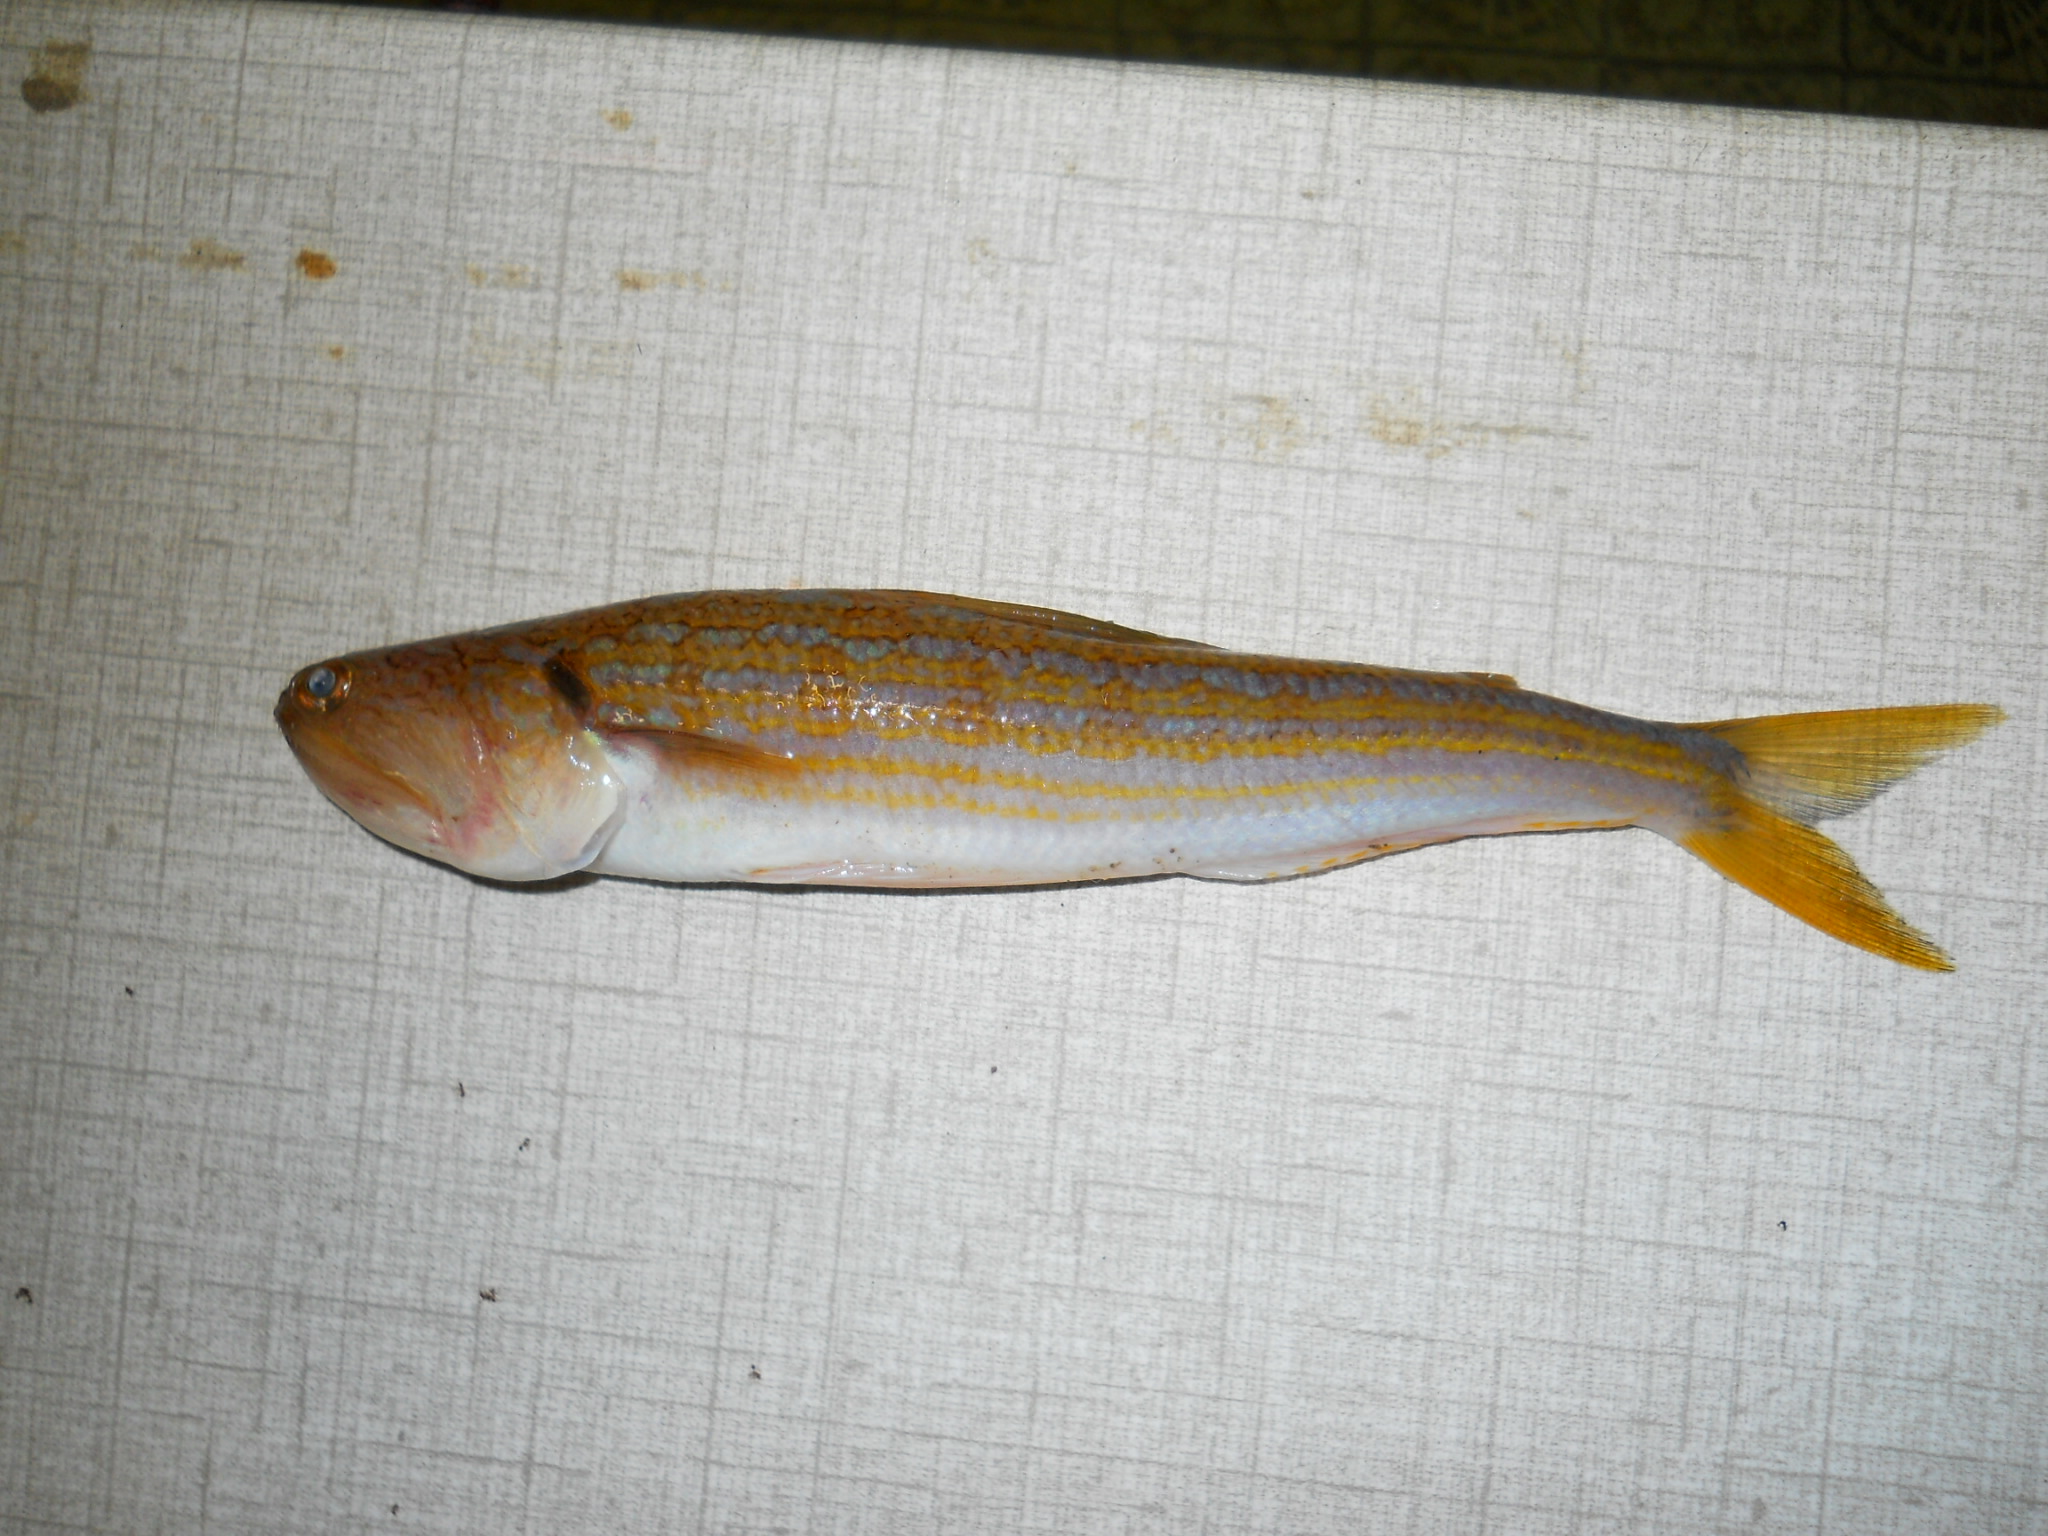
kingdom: Animalia
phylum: Chordata
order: Aulopiformes
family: Synodontidae
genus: Synodus
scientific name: Synodus myops
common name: Snakefish
